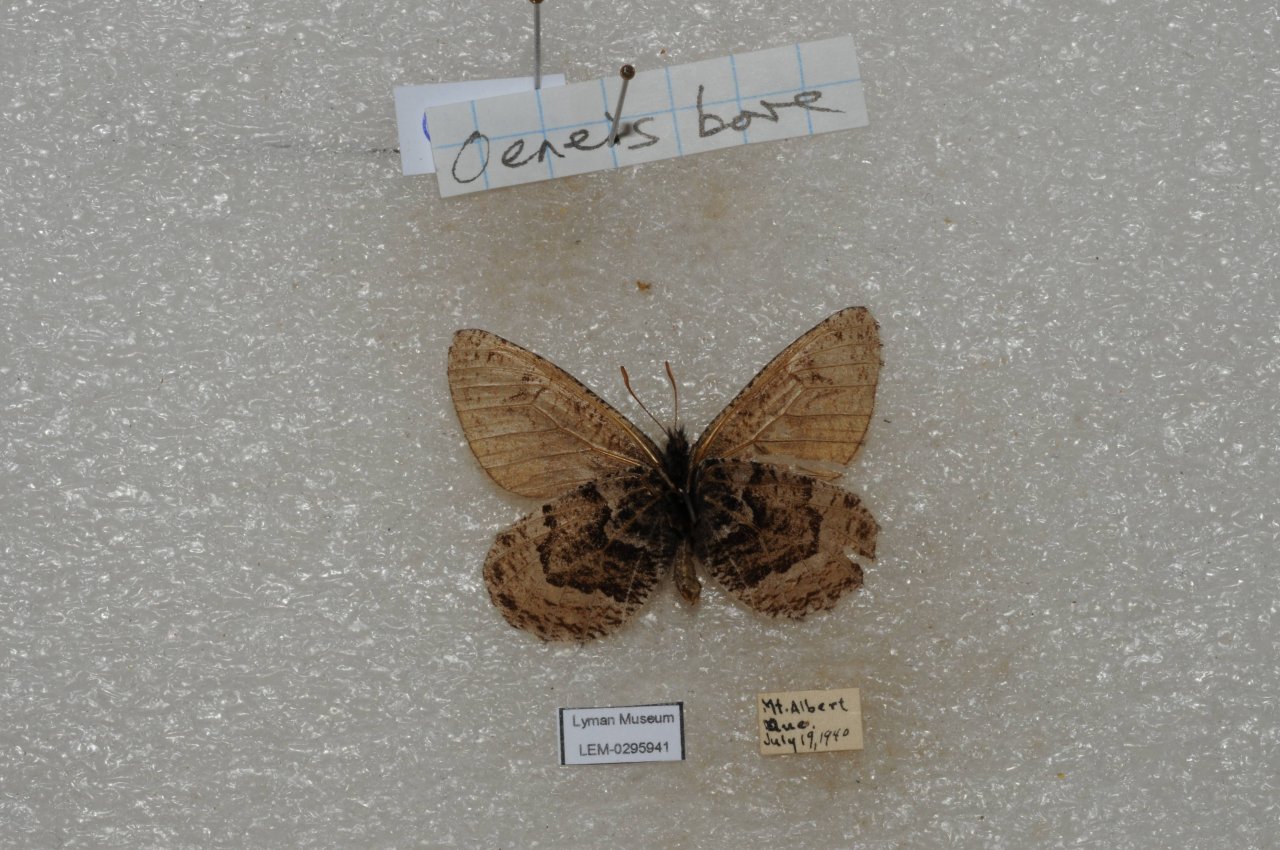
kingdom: Animalia
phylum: Arthropoda
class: Insecta
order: Lepidoptera
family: Nymphalidae
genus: Oeneis
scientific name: Oeneis bore
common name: White-veined Arctic
